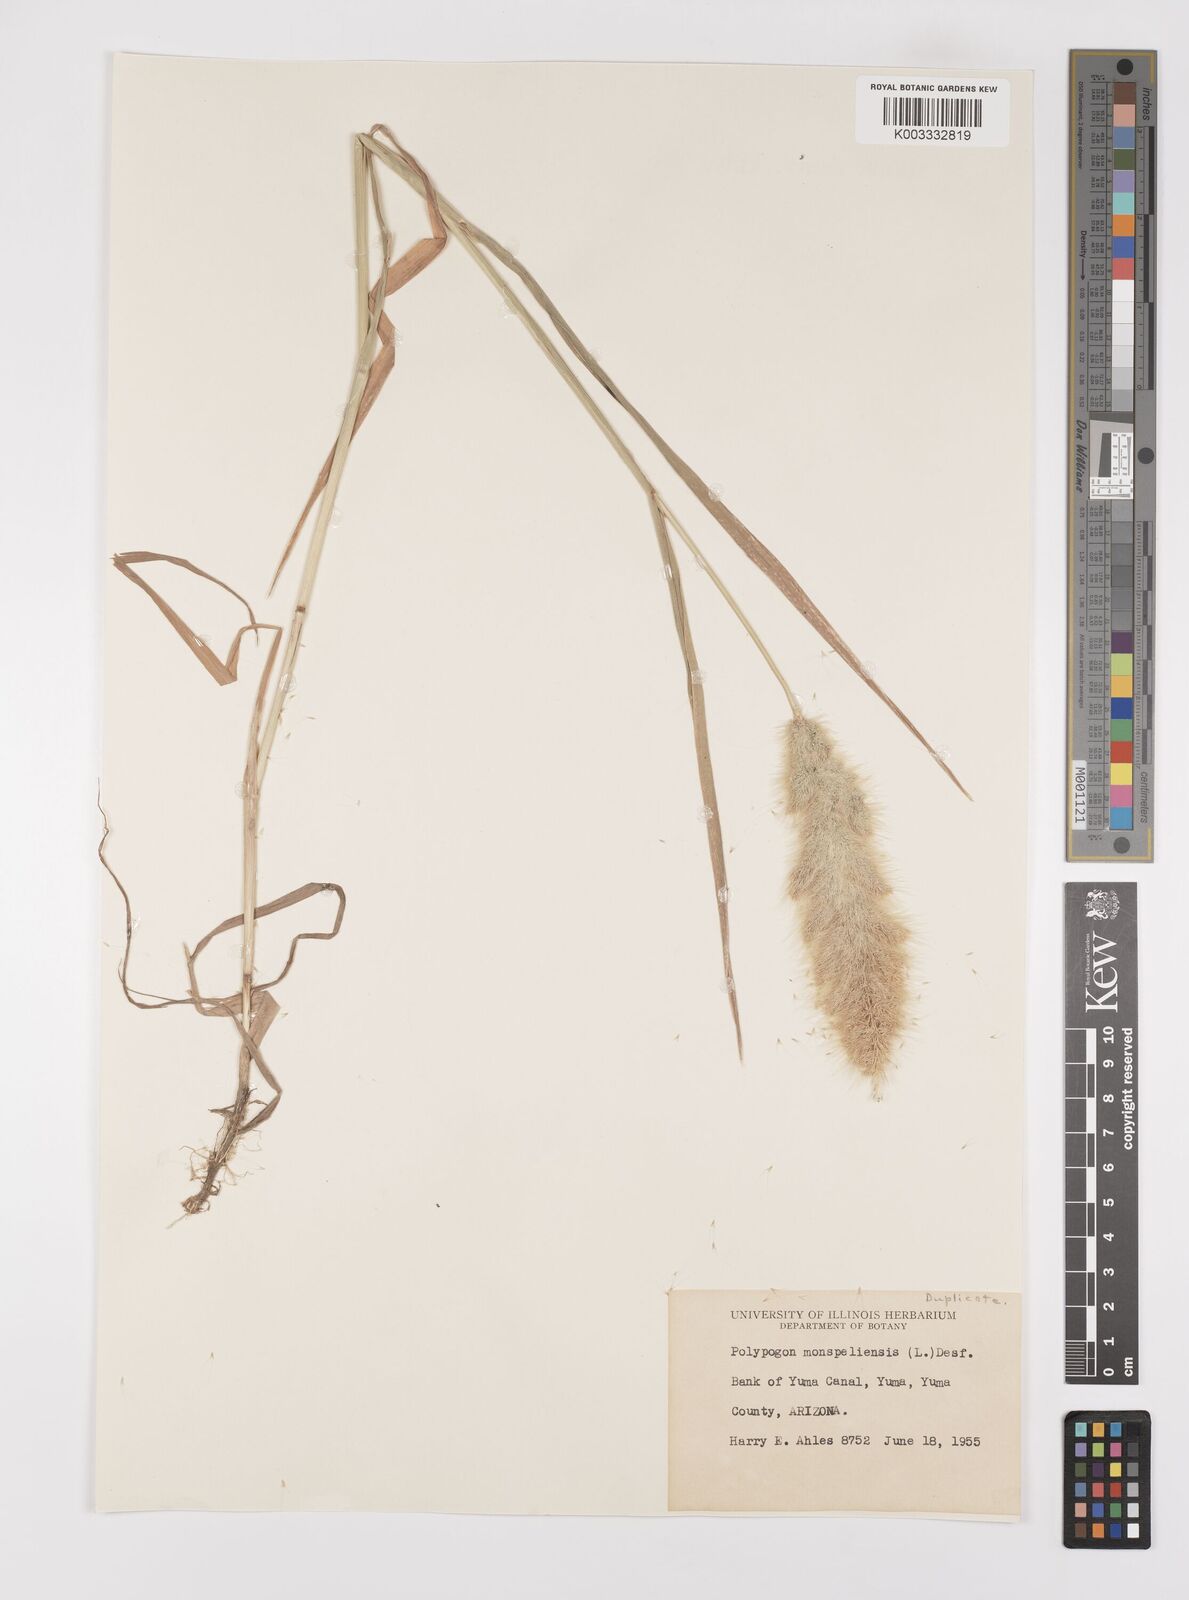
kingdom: Plantae
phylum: Tracheophyta
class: Liliopsida
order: Poales
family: Poaceae
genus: Polypogon
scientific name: Polypogon monspeliensis
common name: Annual rabbitsfoot grass
